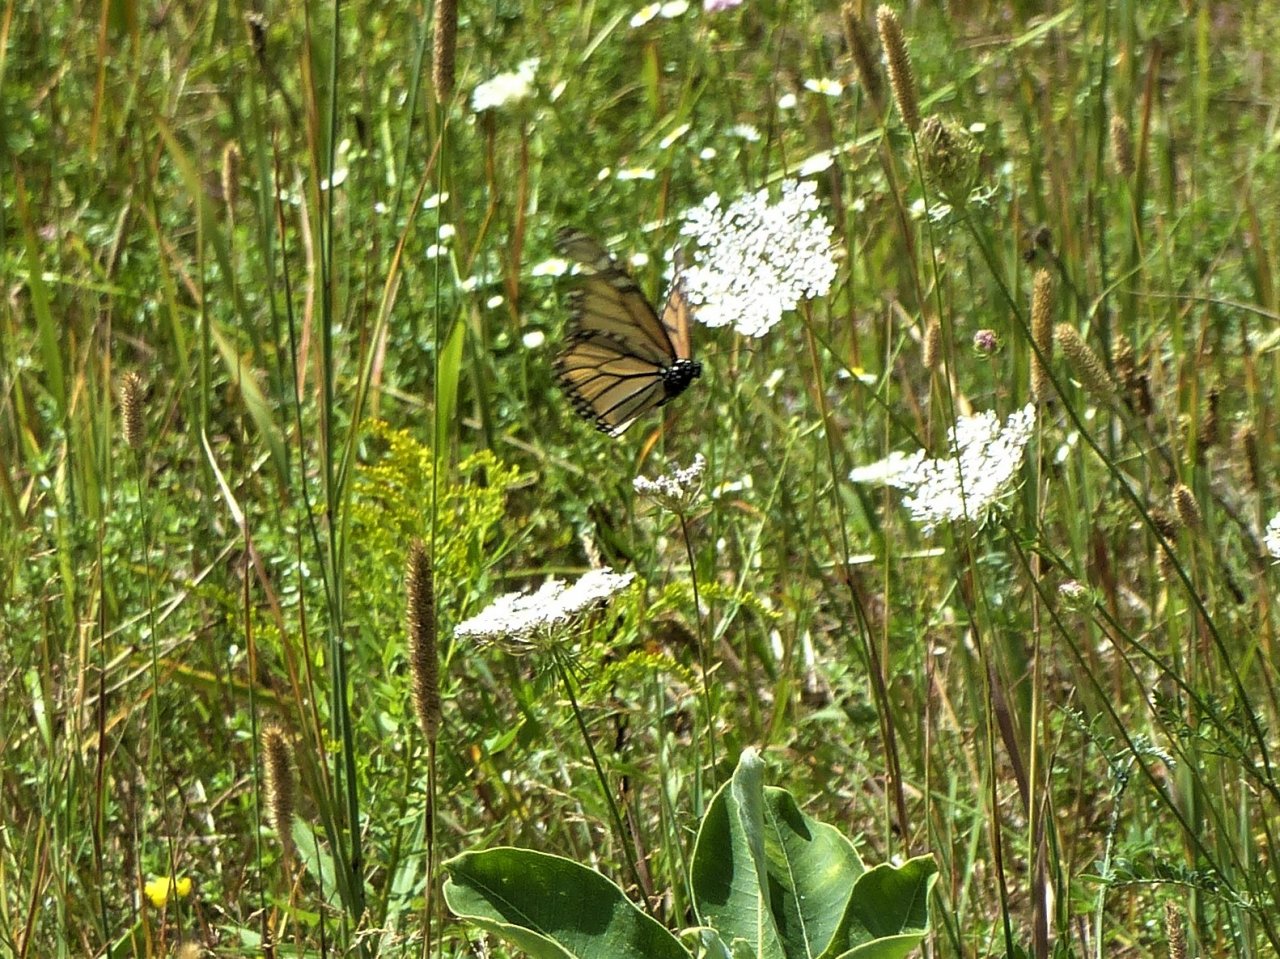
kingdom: Animalia
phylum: Arthropoda
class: Insecta
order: Lepidoptera
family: Nymphalidae
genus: Danaus
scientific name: Danaus plexippus
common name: Monarch
